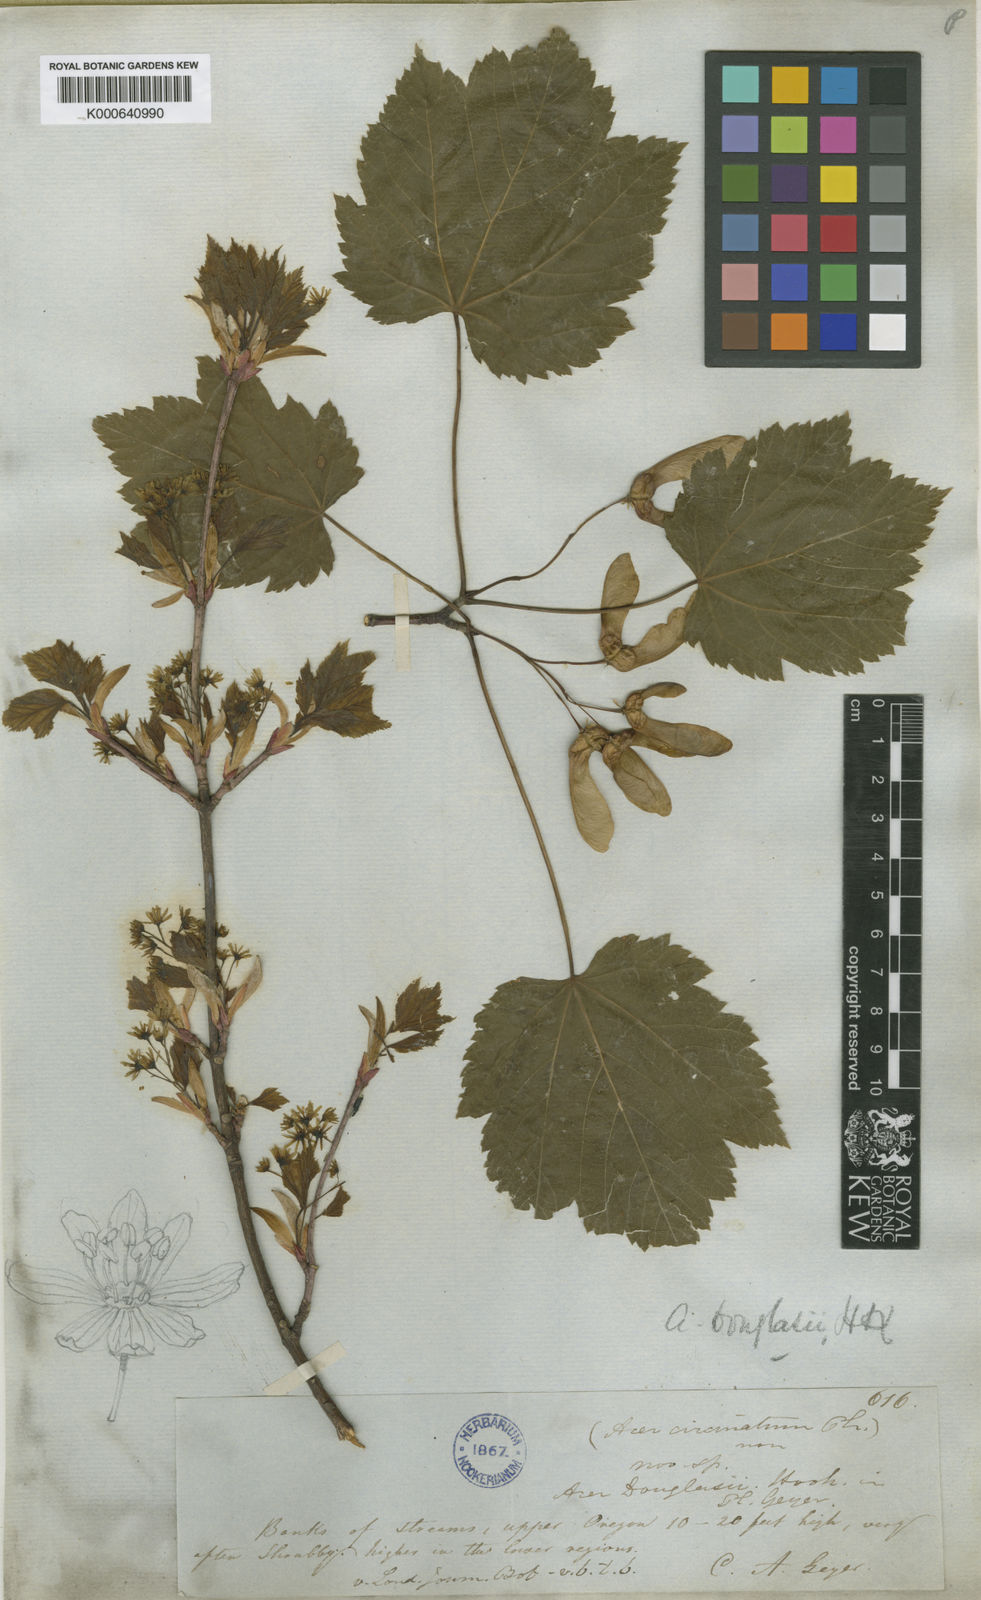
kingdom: Plantae
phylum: Tracheophyta
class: Magnoliopsida
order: Sapindales
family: Sapindaceae
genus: Acer
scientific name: Acer glabrum
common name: Rocky mountain maple
